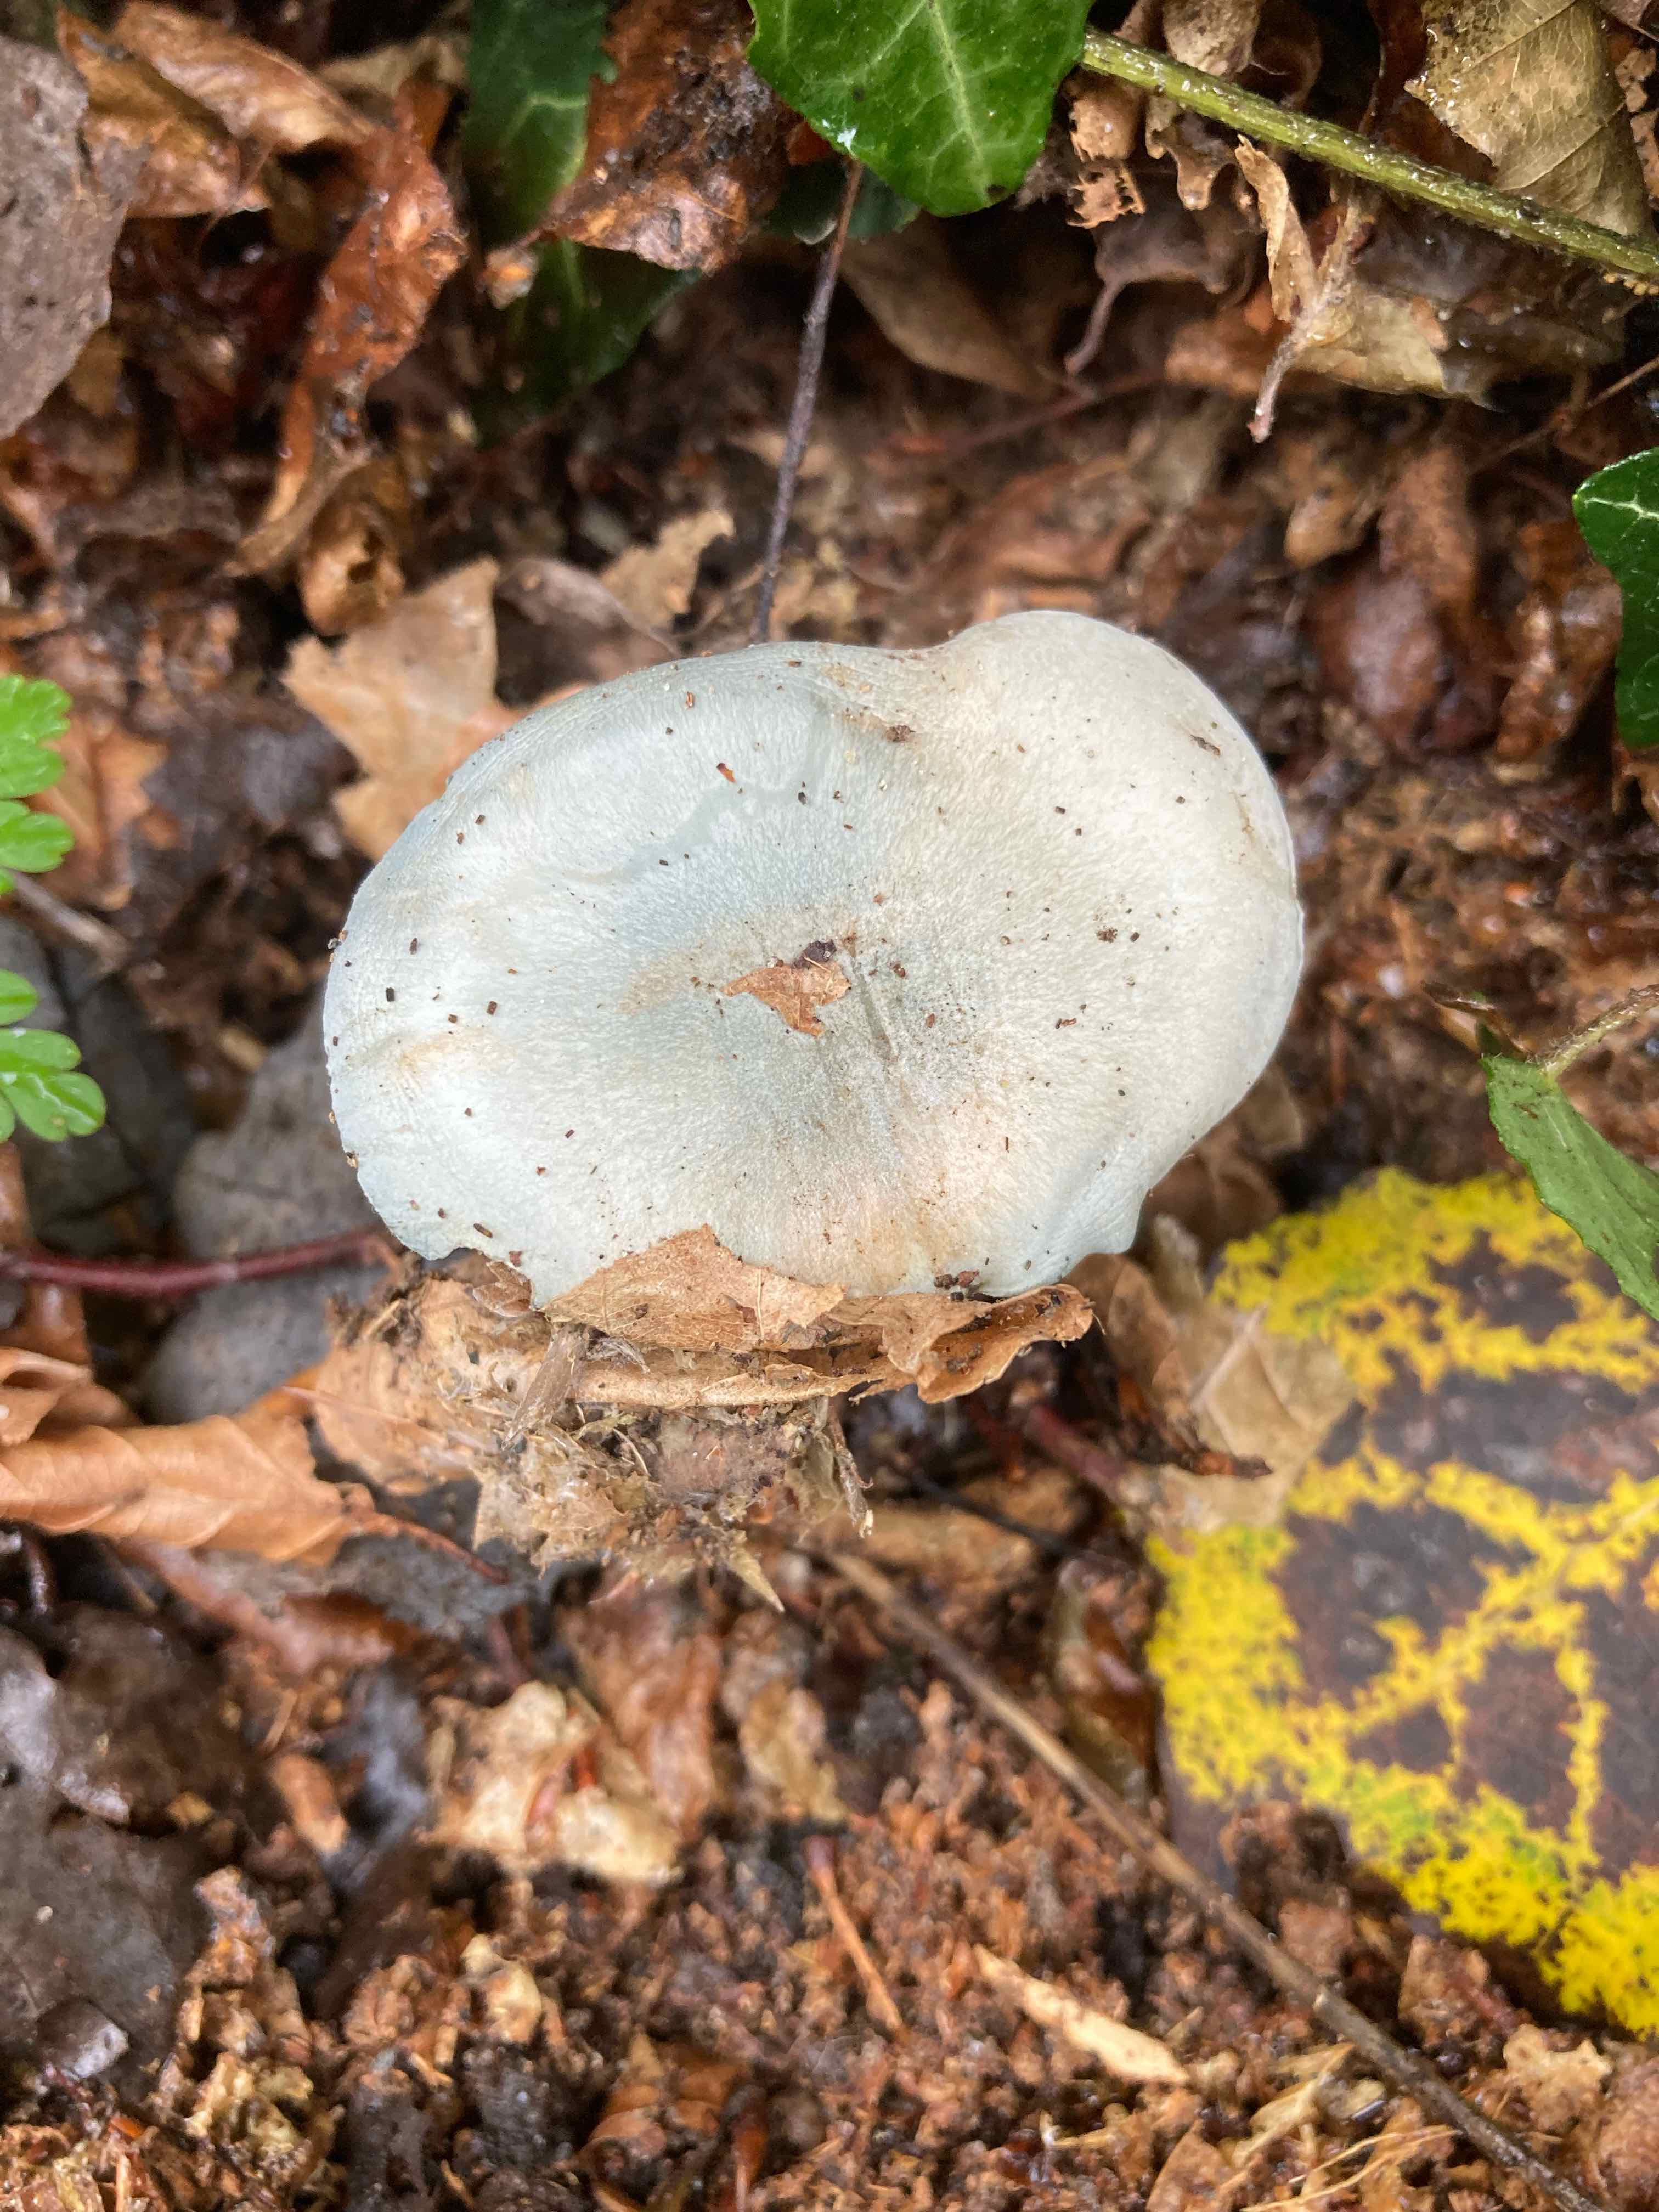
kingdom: Fungi
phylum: Basidiomycota
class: Agaricomycetes
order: Agaricales
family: Tricholomataceae
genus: Clitocybe
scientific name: Clitocybe odora
